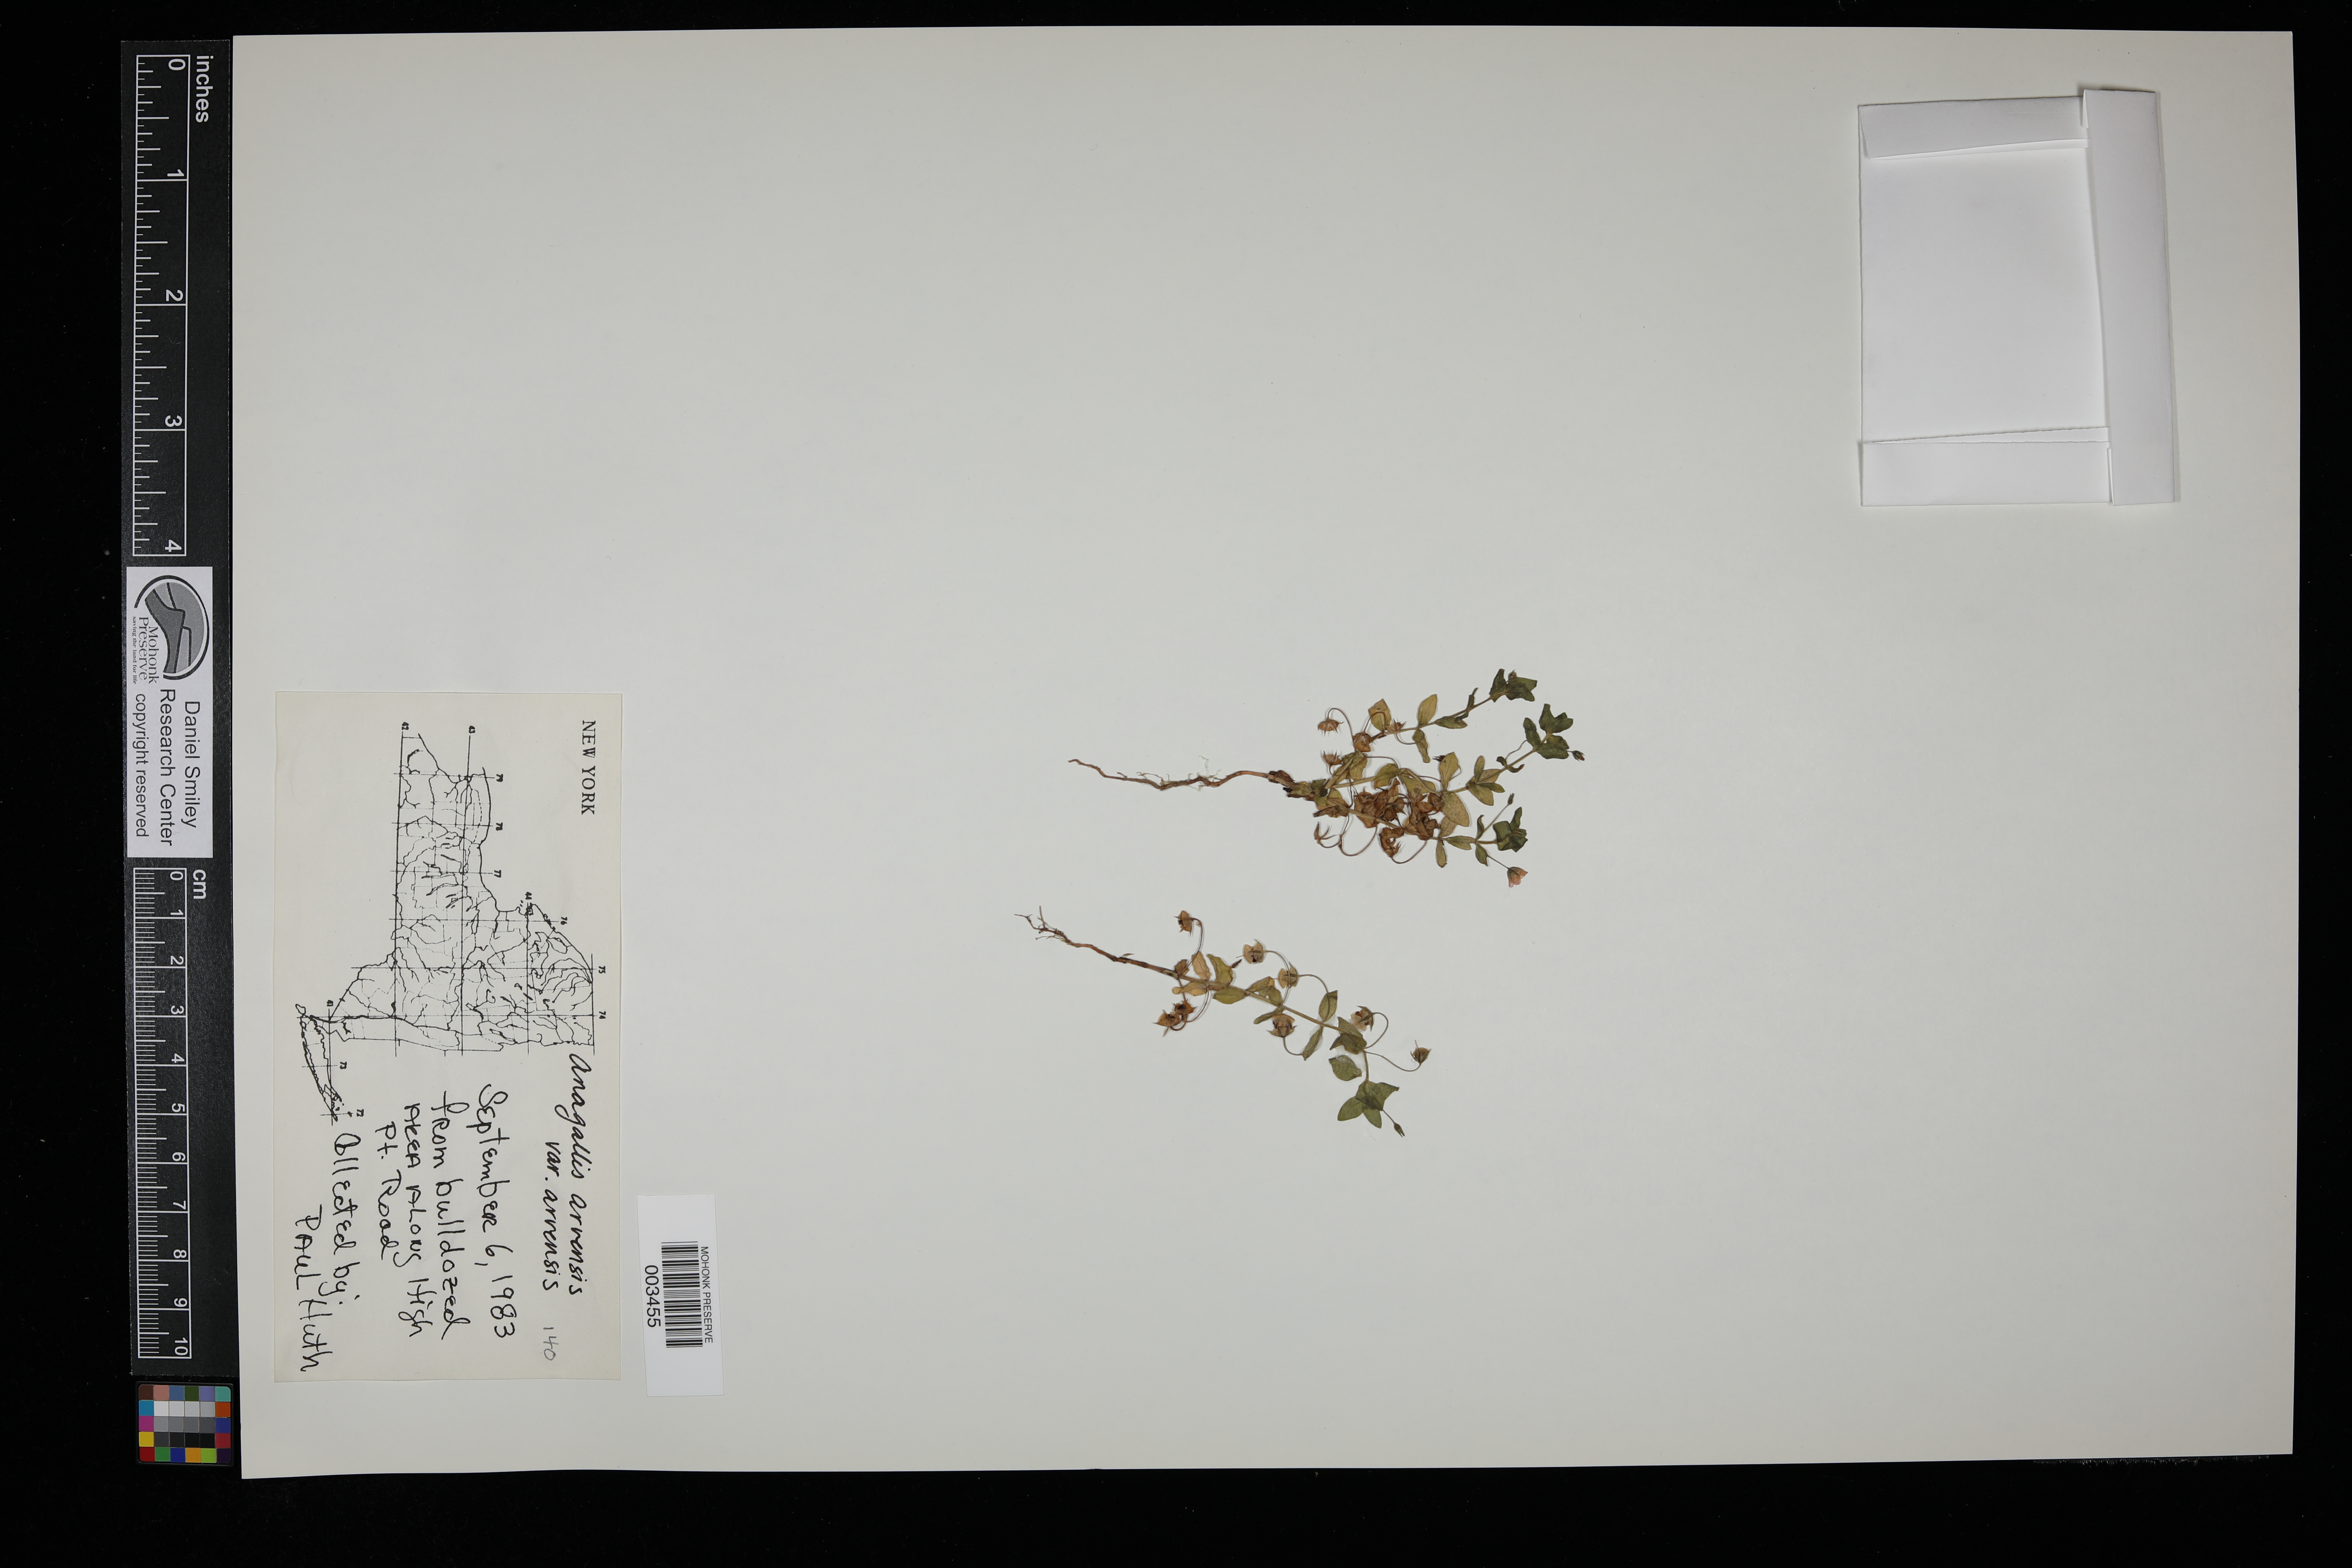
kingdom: Plantae
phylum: Tracheophyta
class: Magnoliopsida
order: Ericales
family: Primulaceae
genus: Lysimachia
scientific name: Lysimachia arvensis
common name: Scarlet pimpernel
